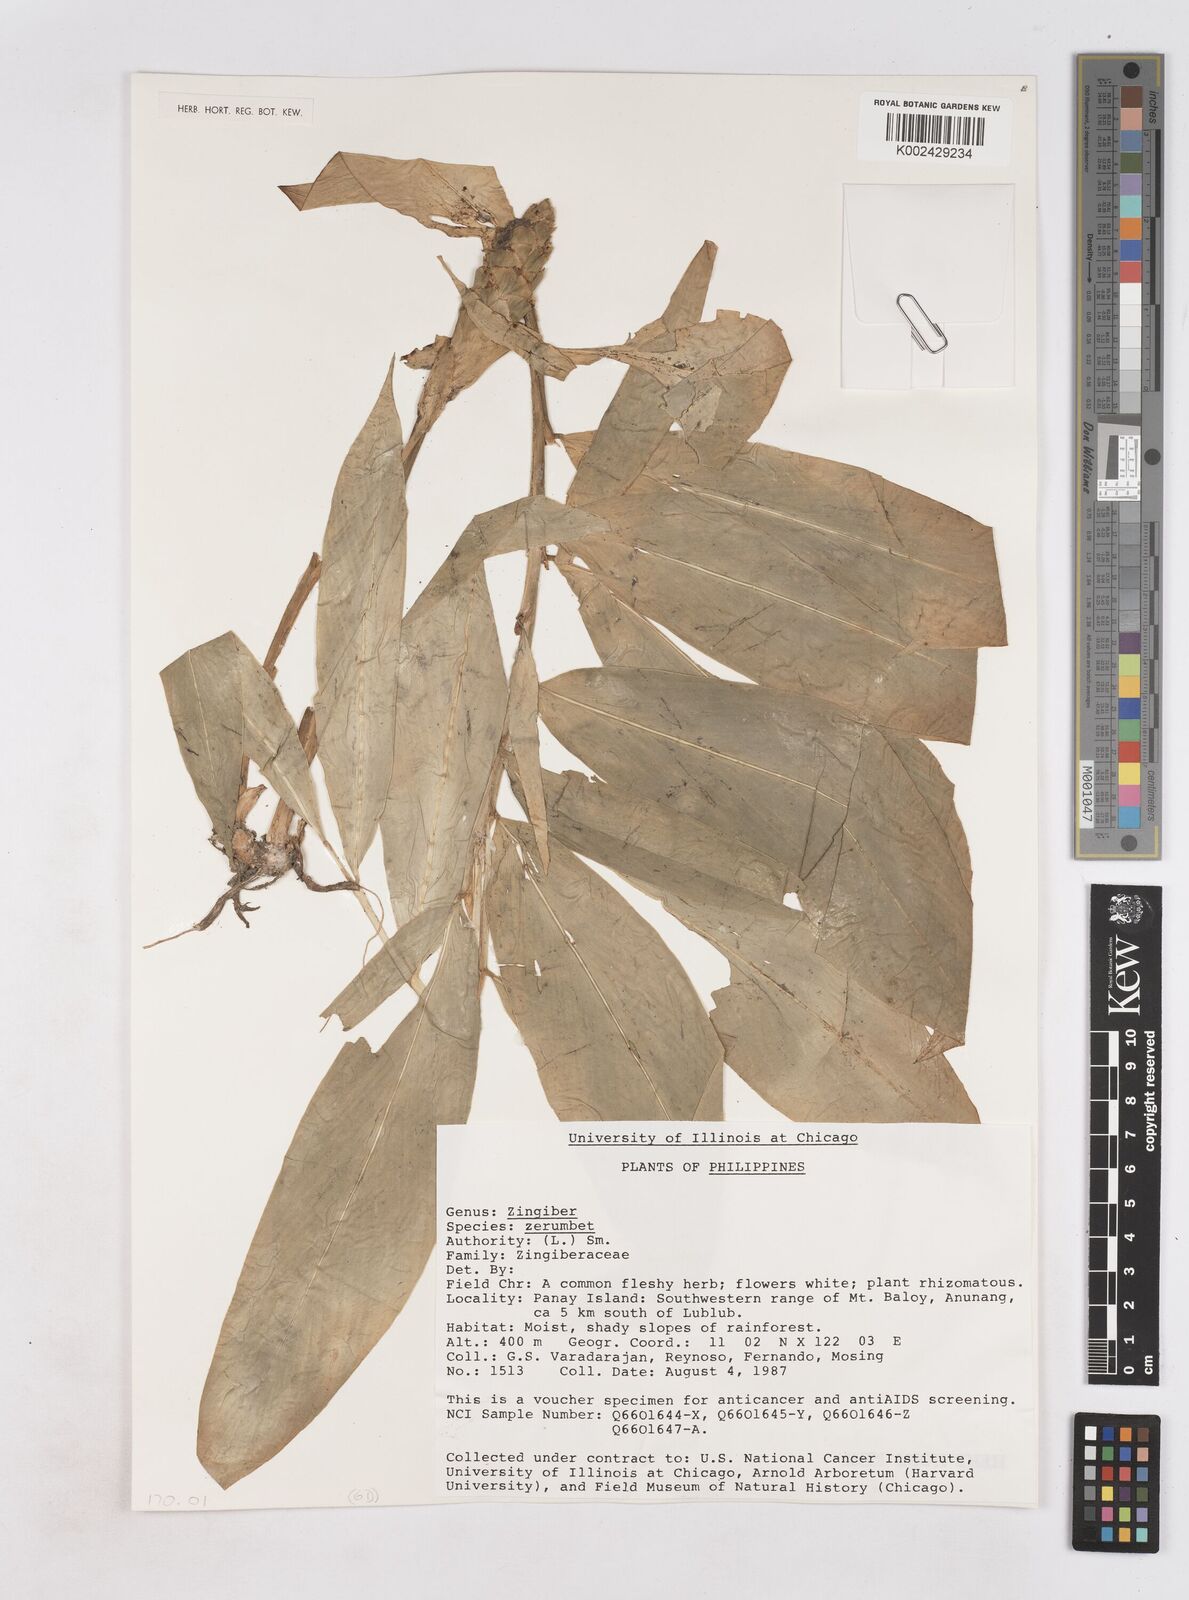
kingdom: Plantae
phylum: Tracheophyta
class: Liliopsida
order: Zingiberales
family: Zingiberaceae
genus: Zingiber
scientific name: Zingiber zerumbet
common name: Bitter ginger
